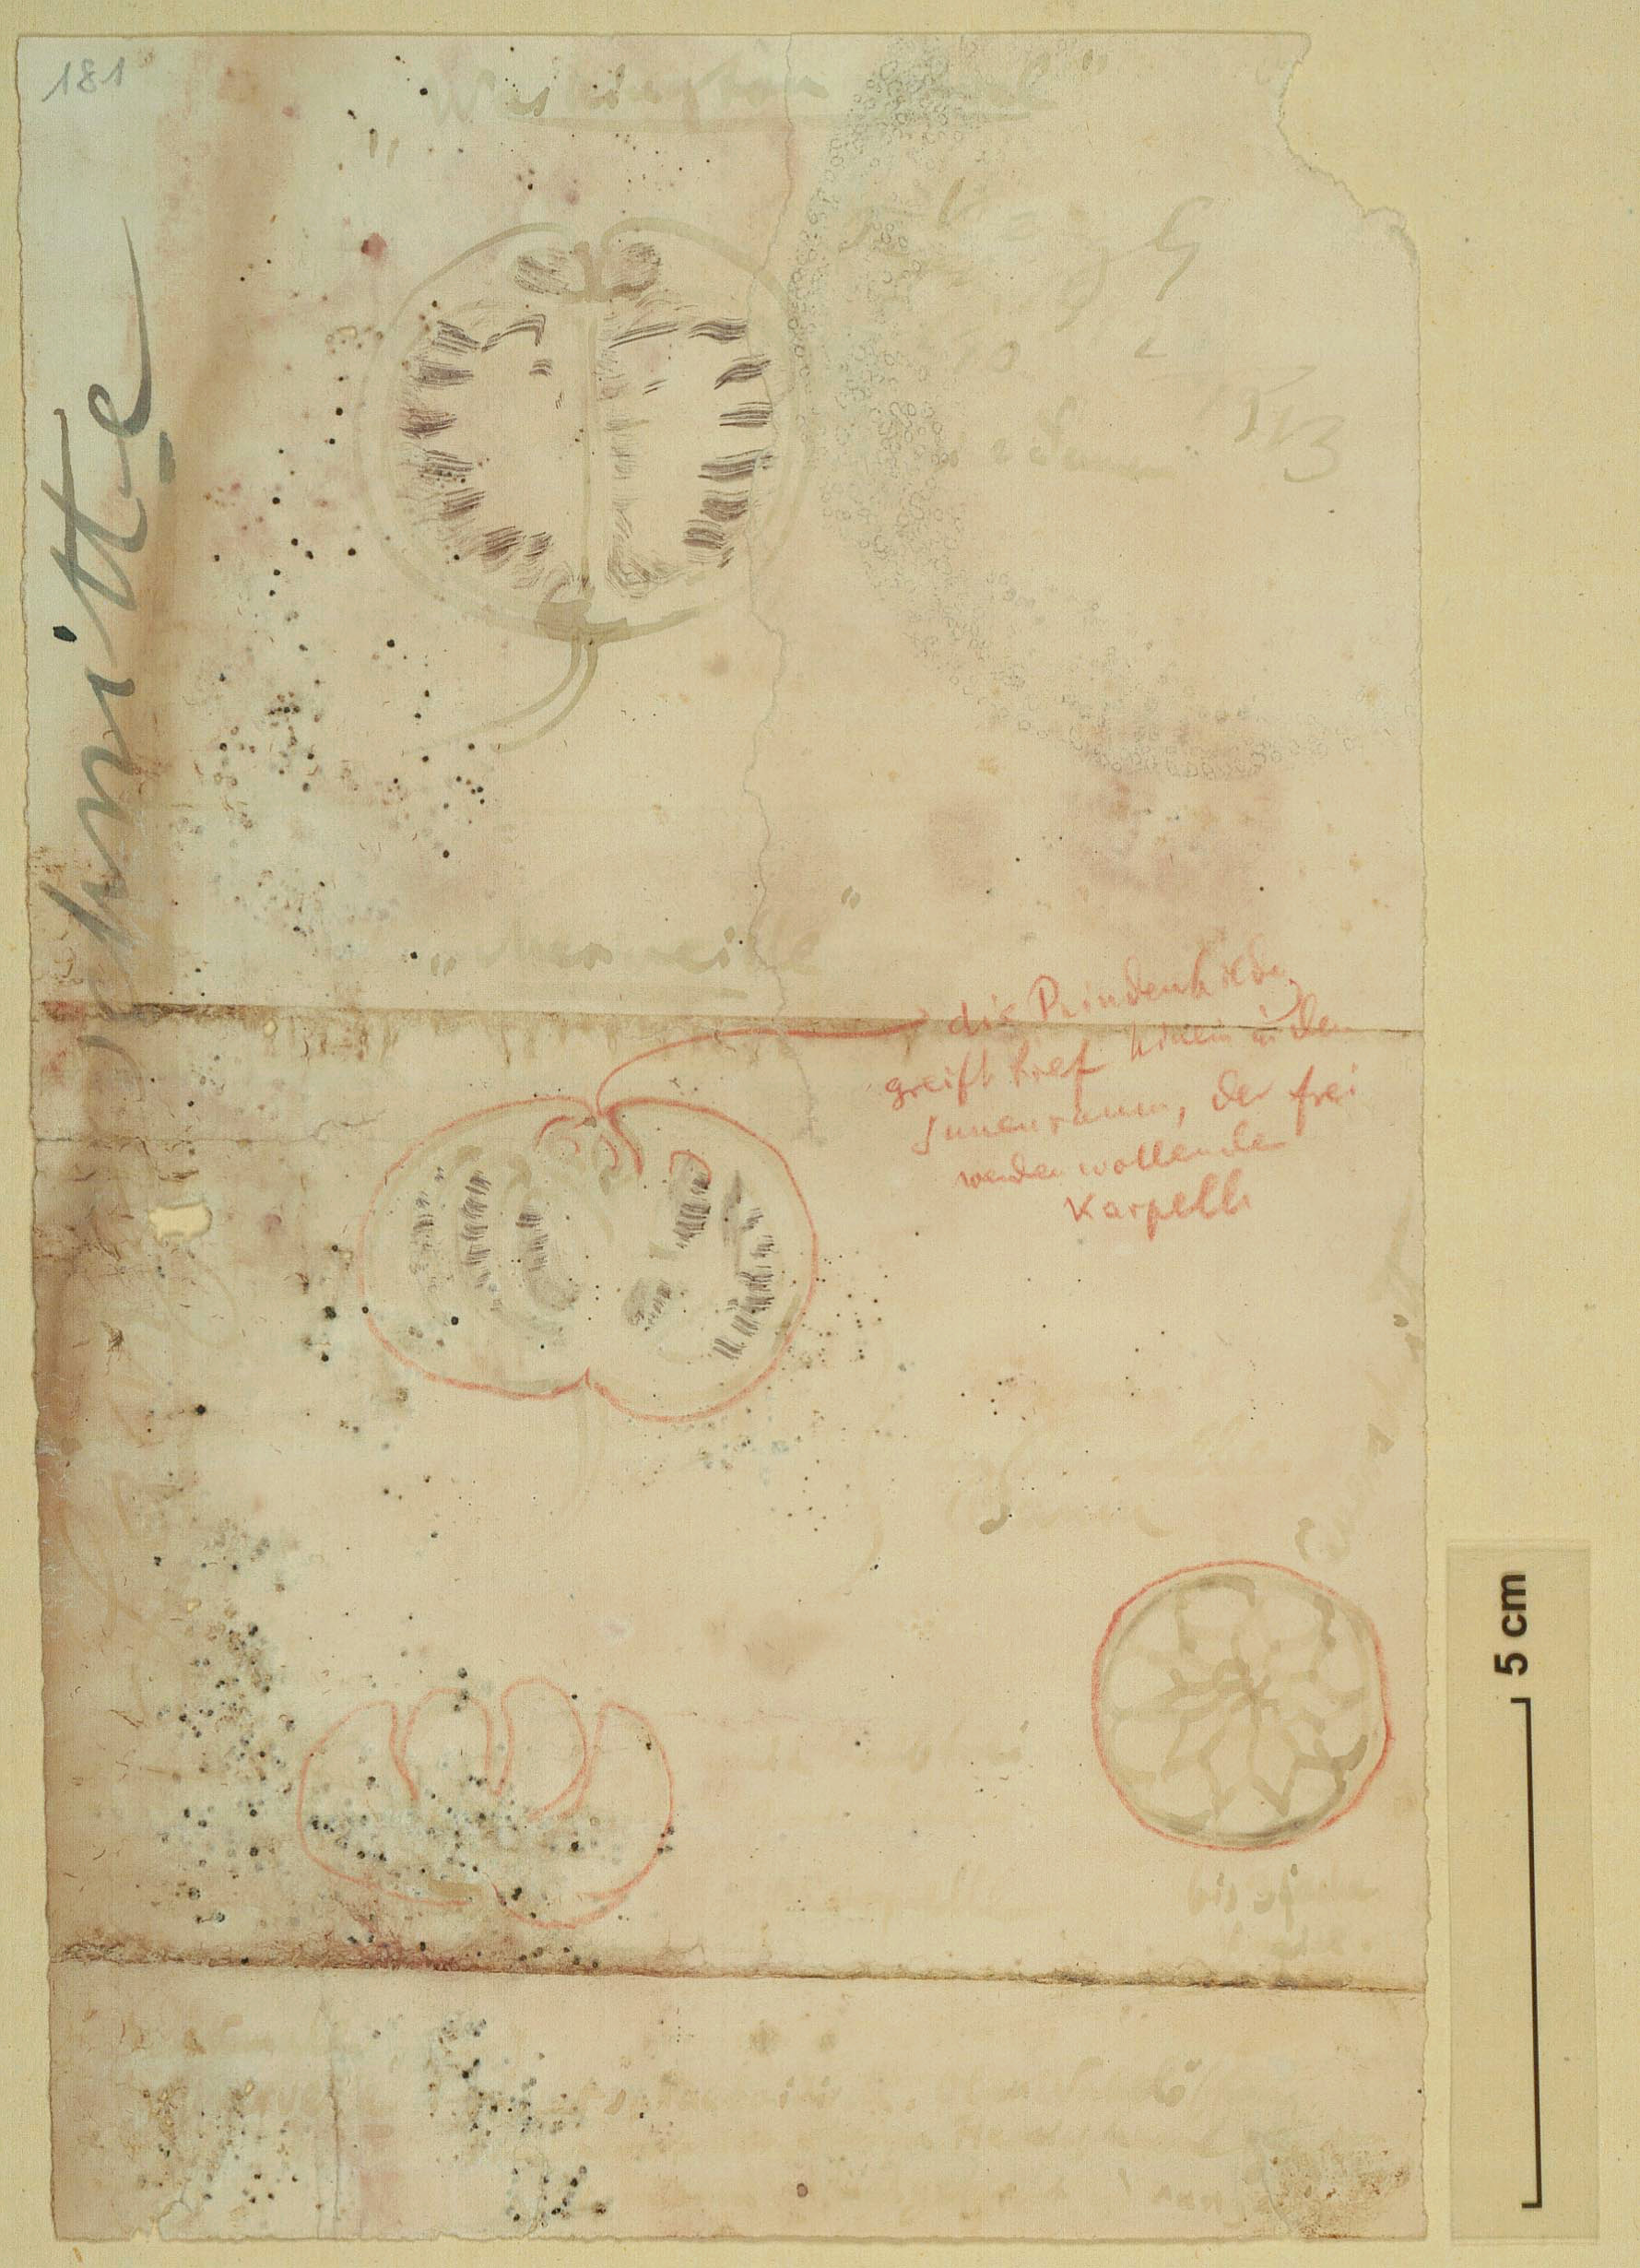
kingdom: Plantae
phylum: Tracheophyta
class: Magnoliopsida
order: Sapindales
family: Rutaceae
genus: Citrus
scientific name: Citrus
